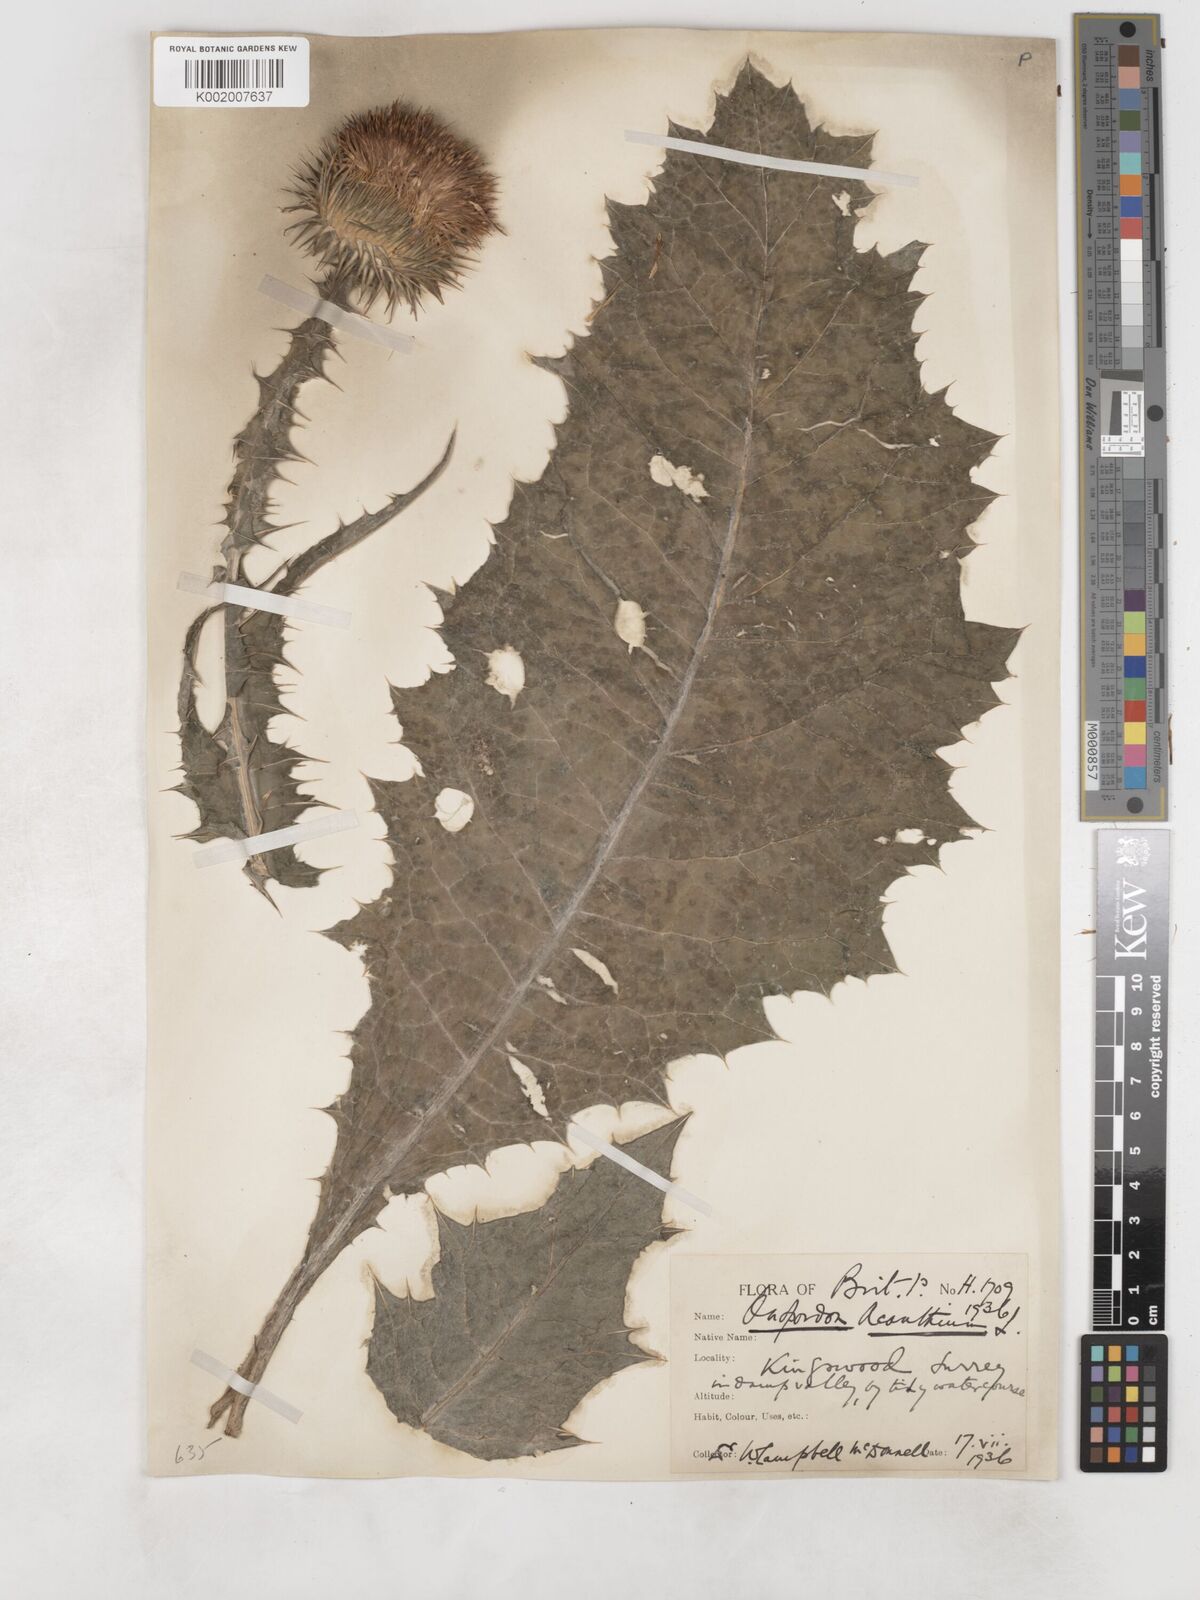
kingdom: Plantae
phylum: Tracheophyta
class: Magnoliopsida
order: Asterales
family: Asteraceae
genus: Onopordum
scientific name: Onopordum acanthium
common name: Scotch thistle
